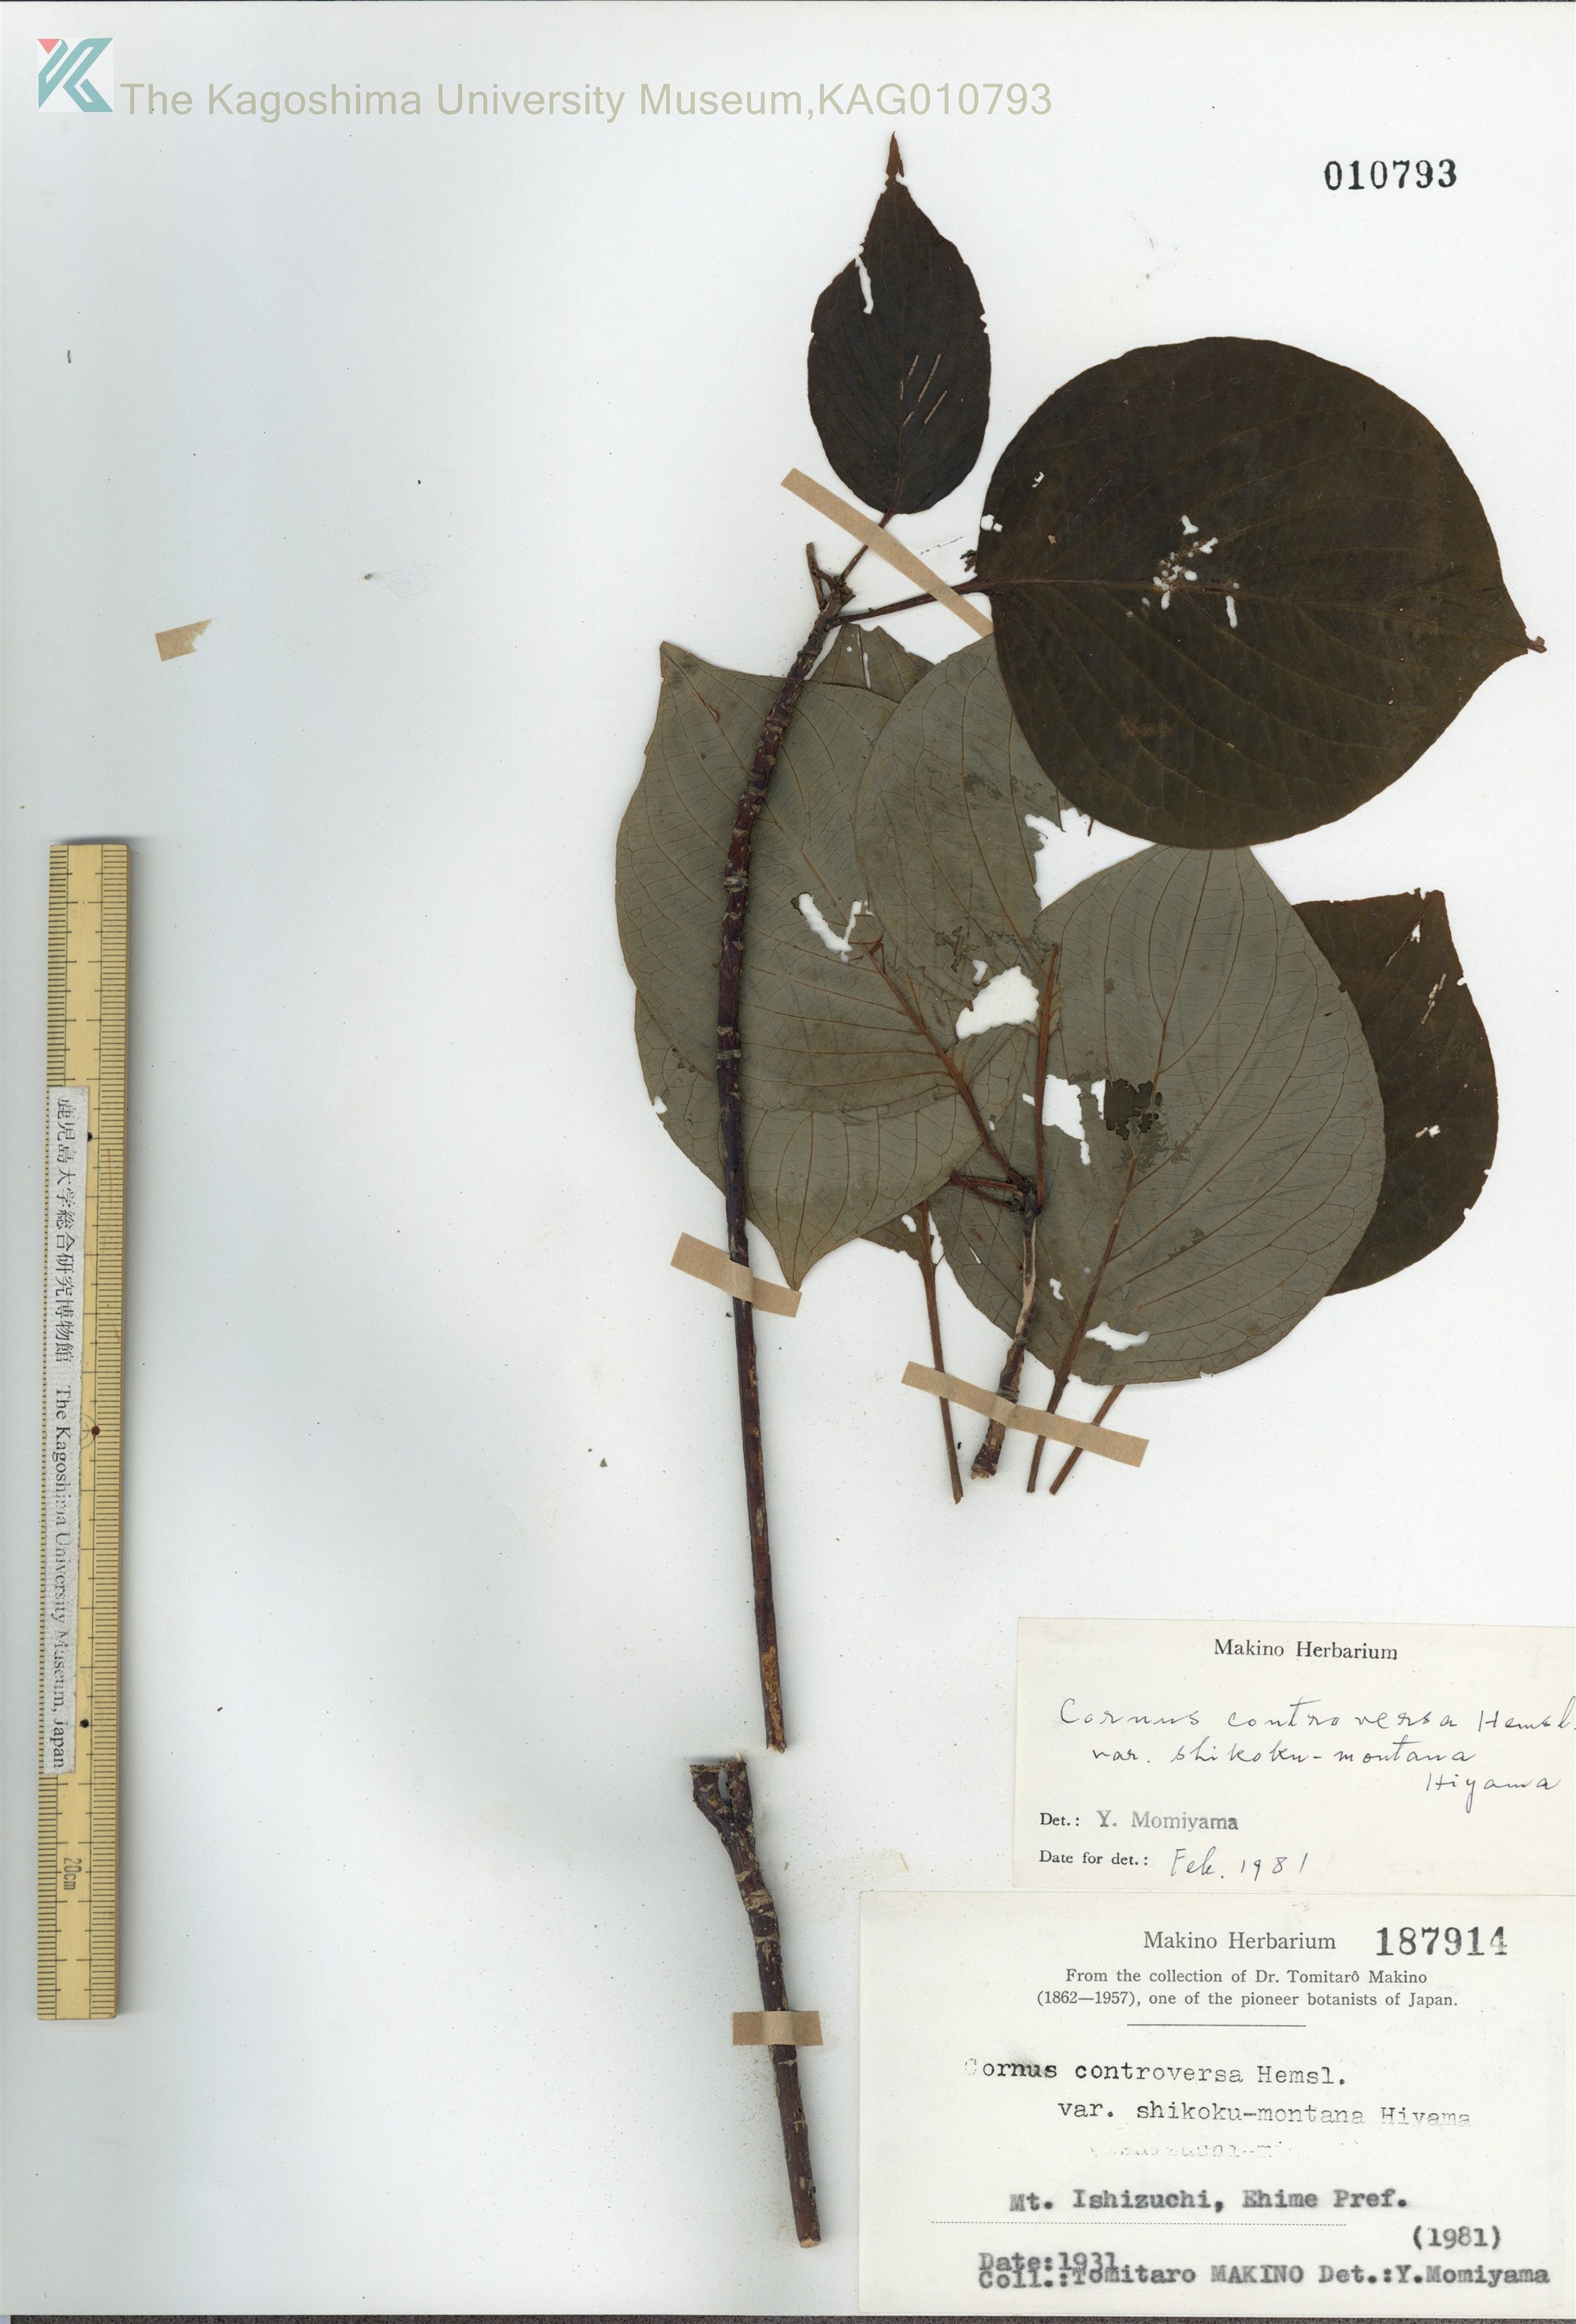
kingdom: Plantae
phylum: Tracheophyta
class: Magnoliopsida
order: Cornales
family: Cornaceae
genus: Cornus
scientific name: Cornus controversa
